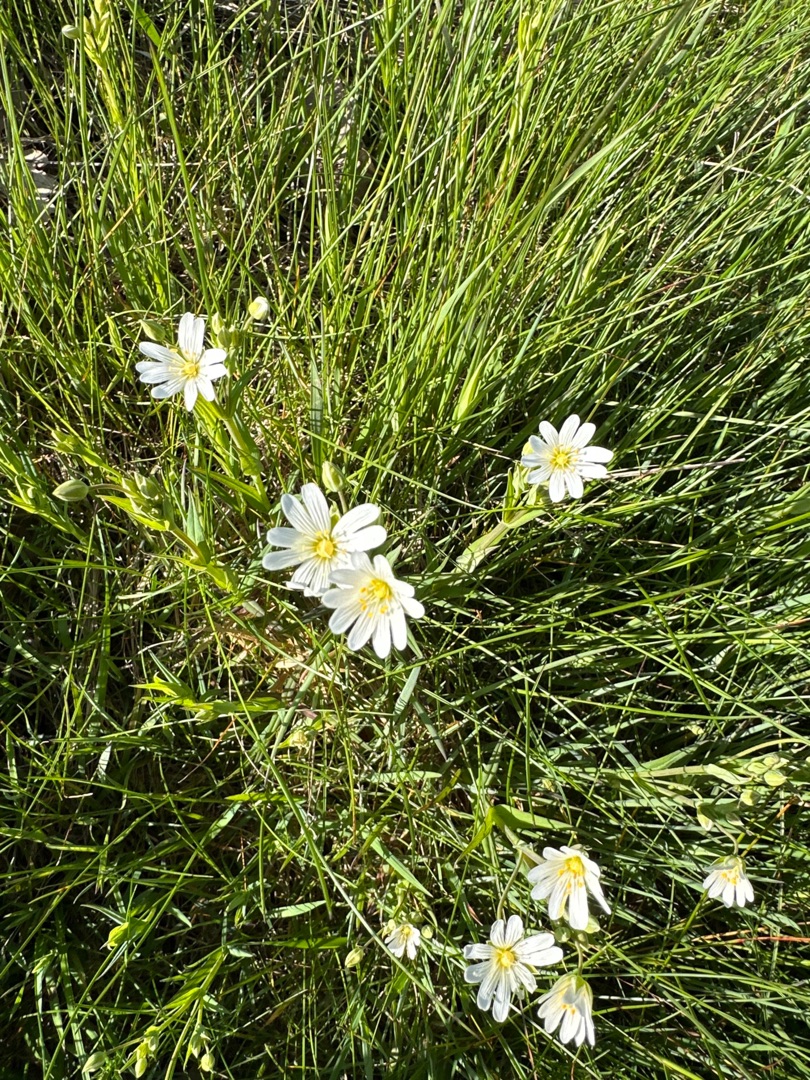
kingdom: Plantae
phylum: Tracheophyta
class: Magnoliopsida
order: Caryophyllales
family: Caryophyllaceae
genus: Rabelera
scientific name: Rabelera holostea
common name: Stor fladstjerne
